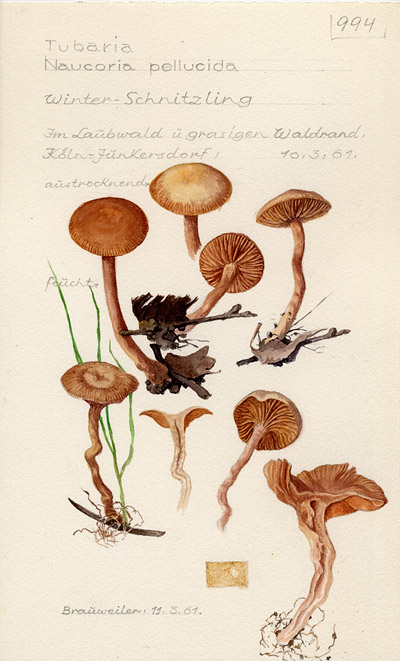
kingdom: Fungi
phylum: Basidiomycota
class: Agaricomycetes
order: Agaricales
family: Tubariaceae
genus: Tubaria
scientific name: Tubaria romagnesiana
